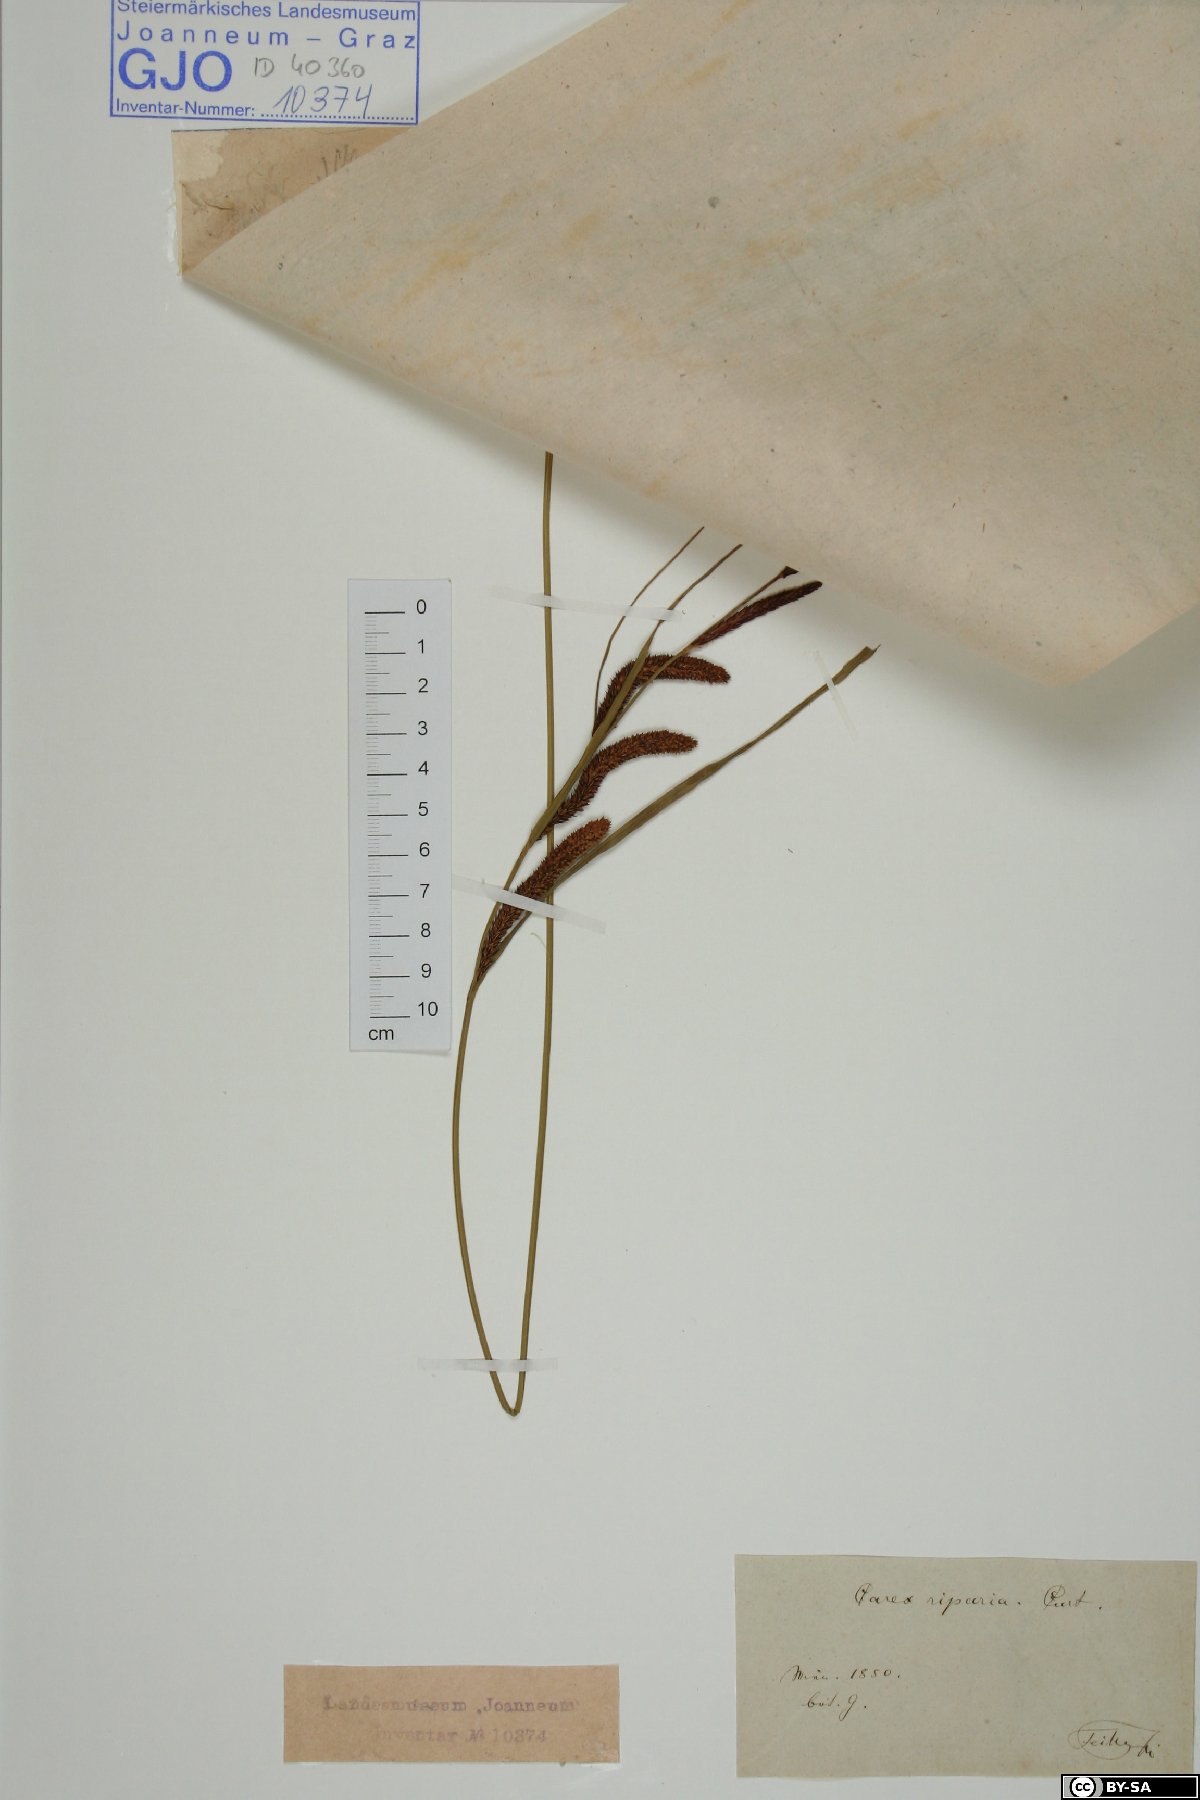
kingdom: Plantae
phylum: Tracheophyta
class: Liliopsida
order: Poales
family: Cyperaceae
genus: Carex
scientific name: Carex riparia
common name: Greater pond-sedge
